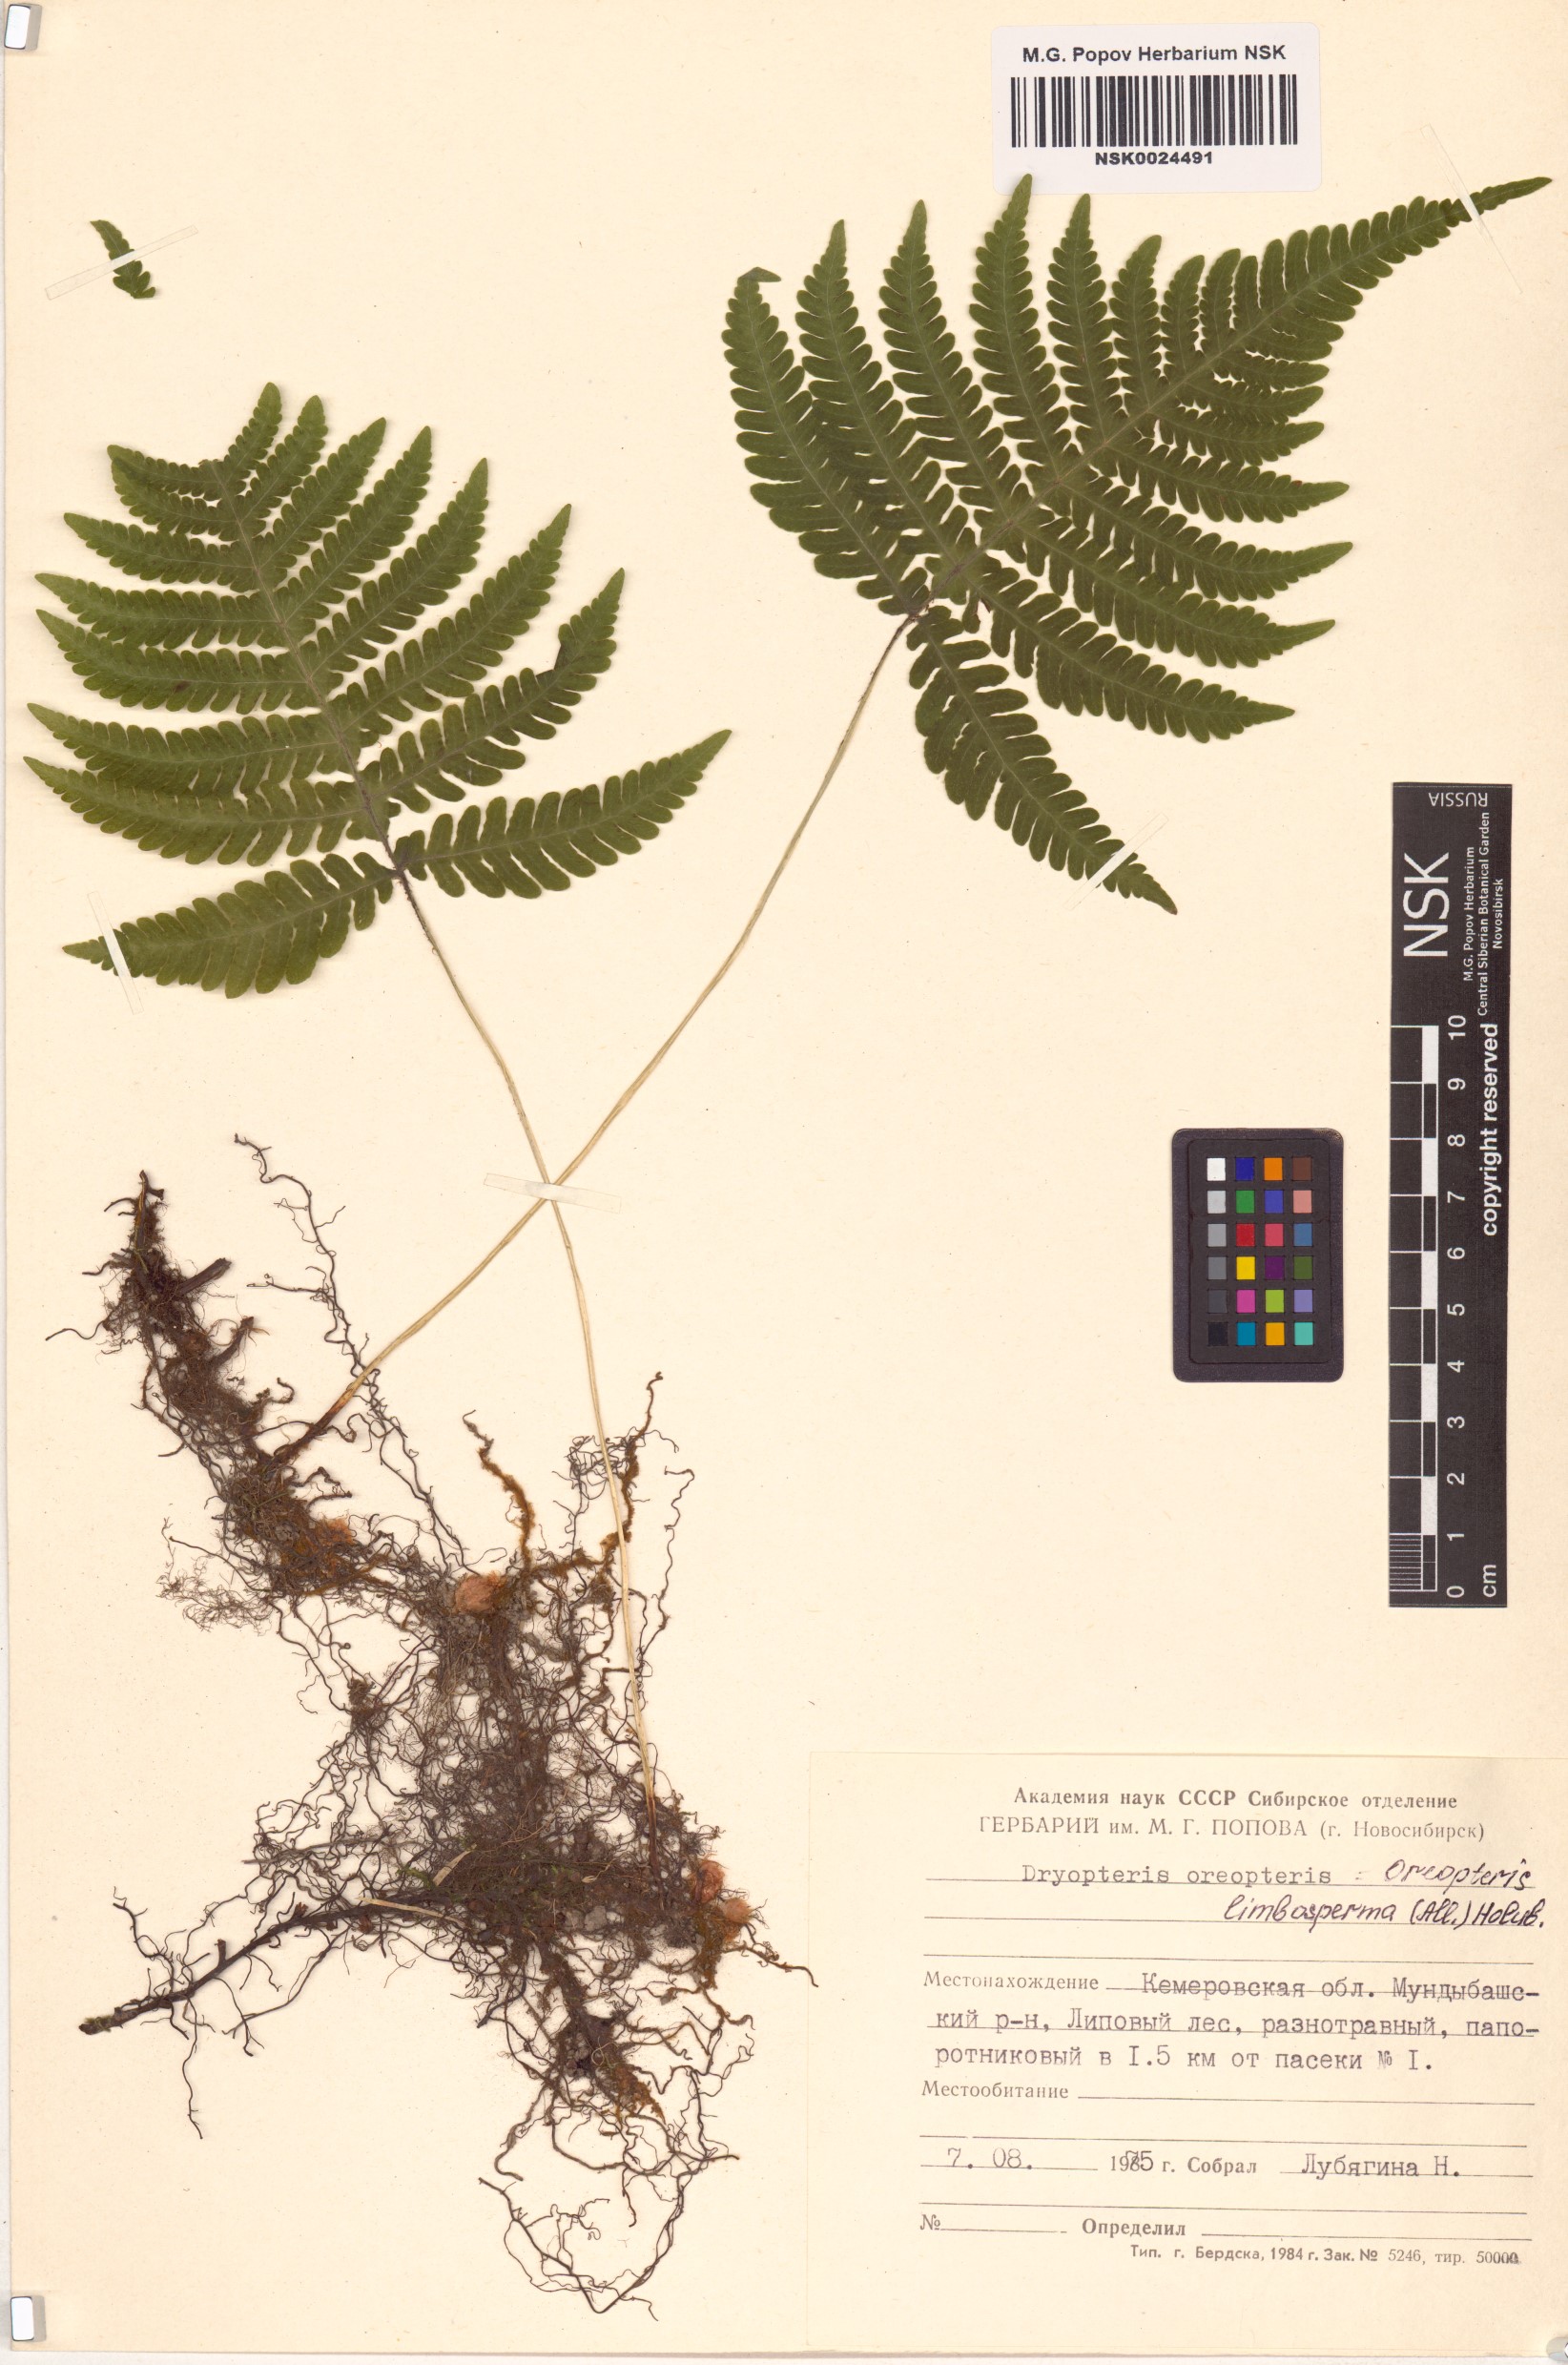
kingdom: Plantae
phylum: Tracheophyta
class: Polypodiopsida
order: Polypodiales
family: Thelypteridaceae
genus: Oreopteris
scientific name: Oreopteris limbosperma
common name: Lemon-scented fern
